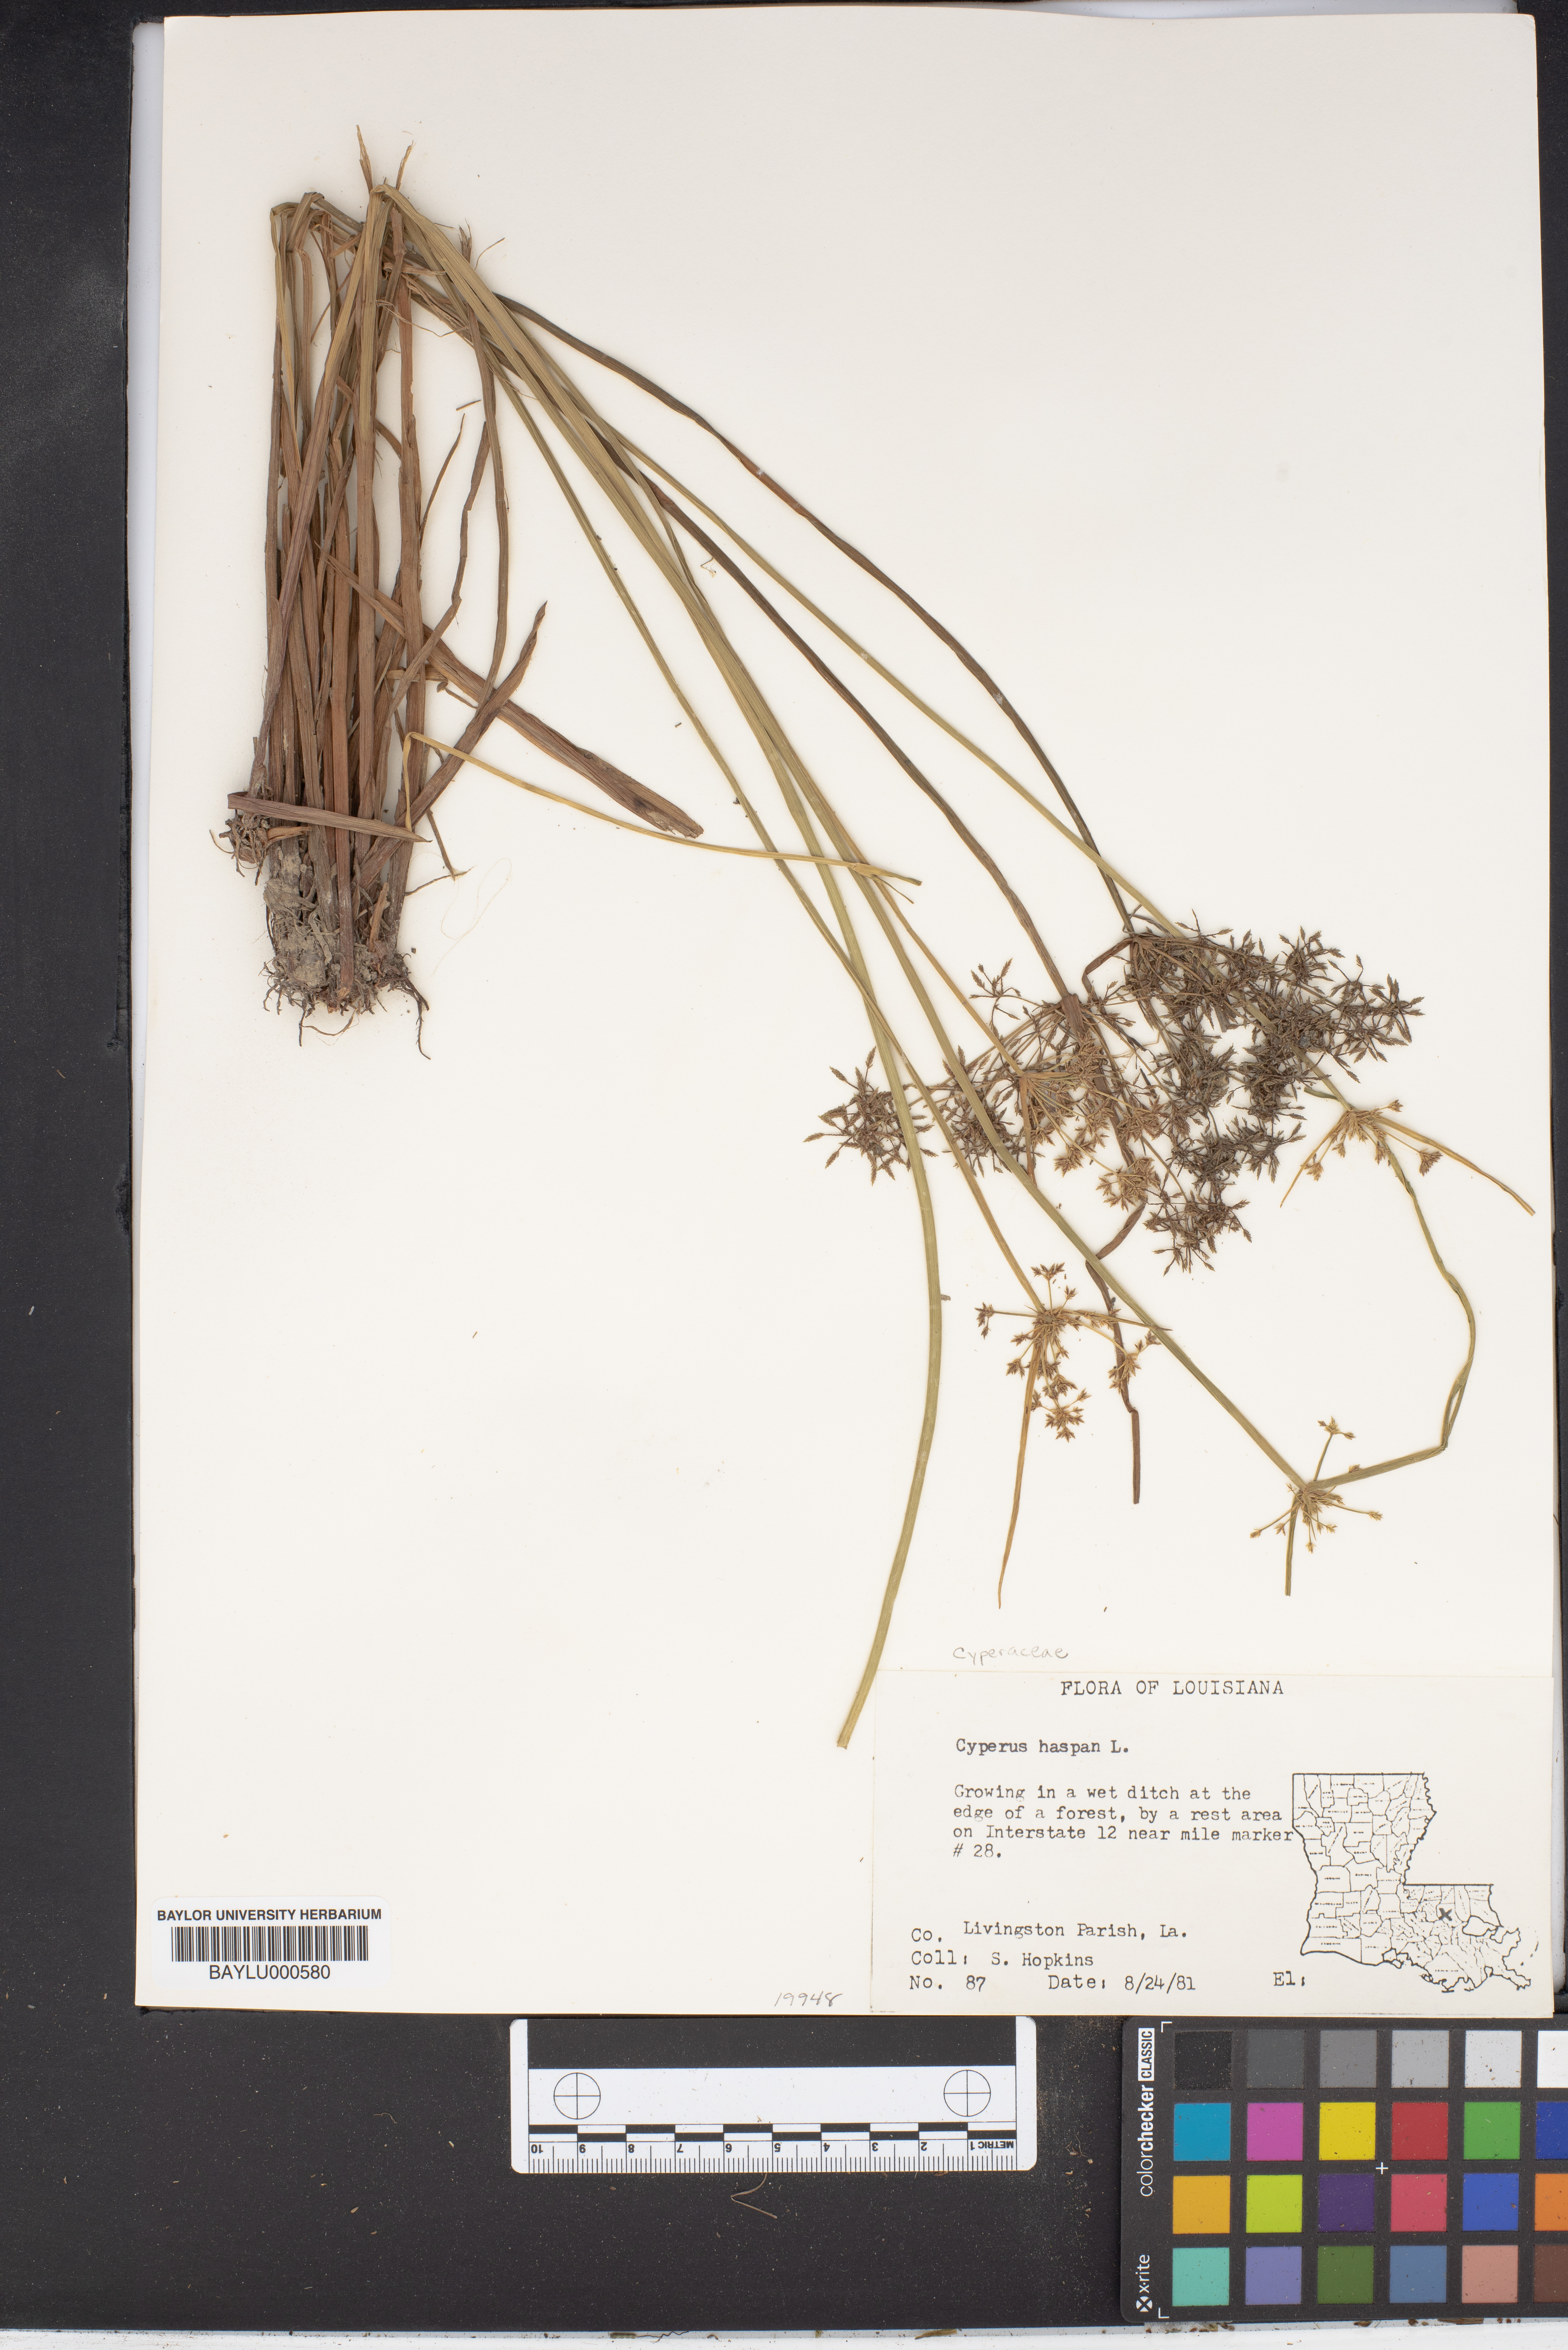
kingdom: Plantae
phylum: Tracheophyta
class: Liliopsida
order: Poales
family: Cyperaceae
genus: Cyperus
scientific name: Cyperus haspan
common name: Haspan flatsedge
